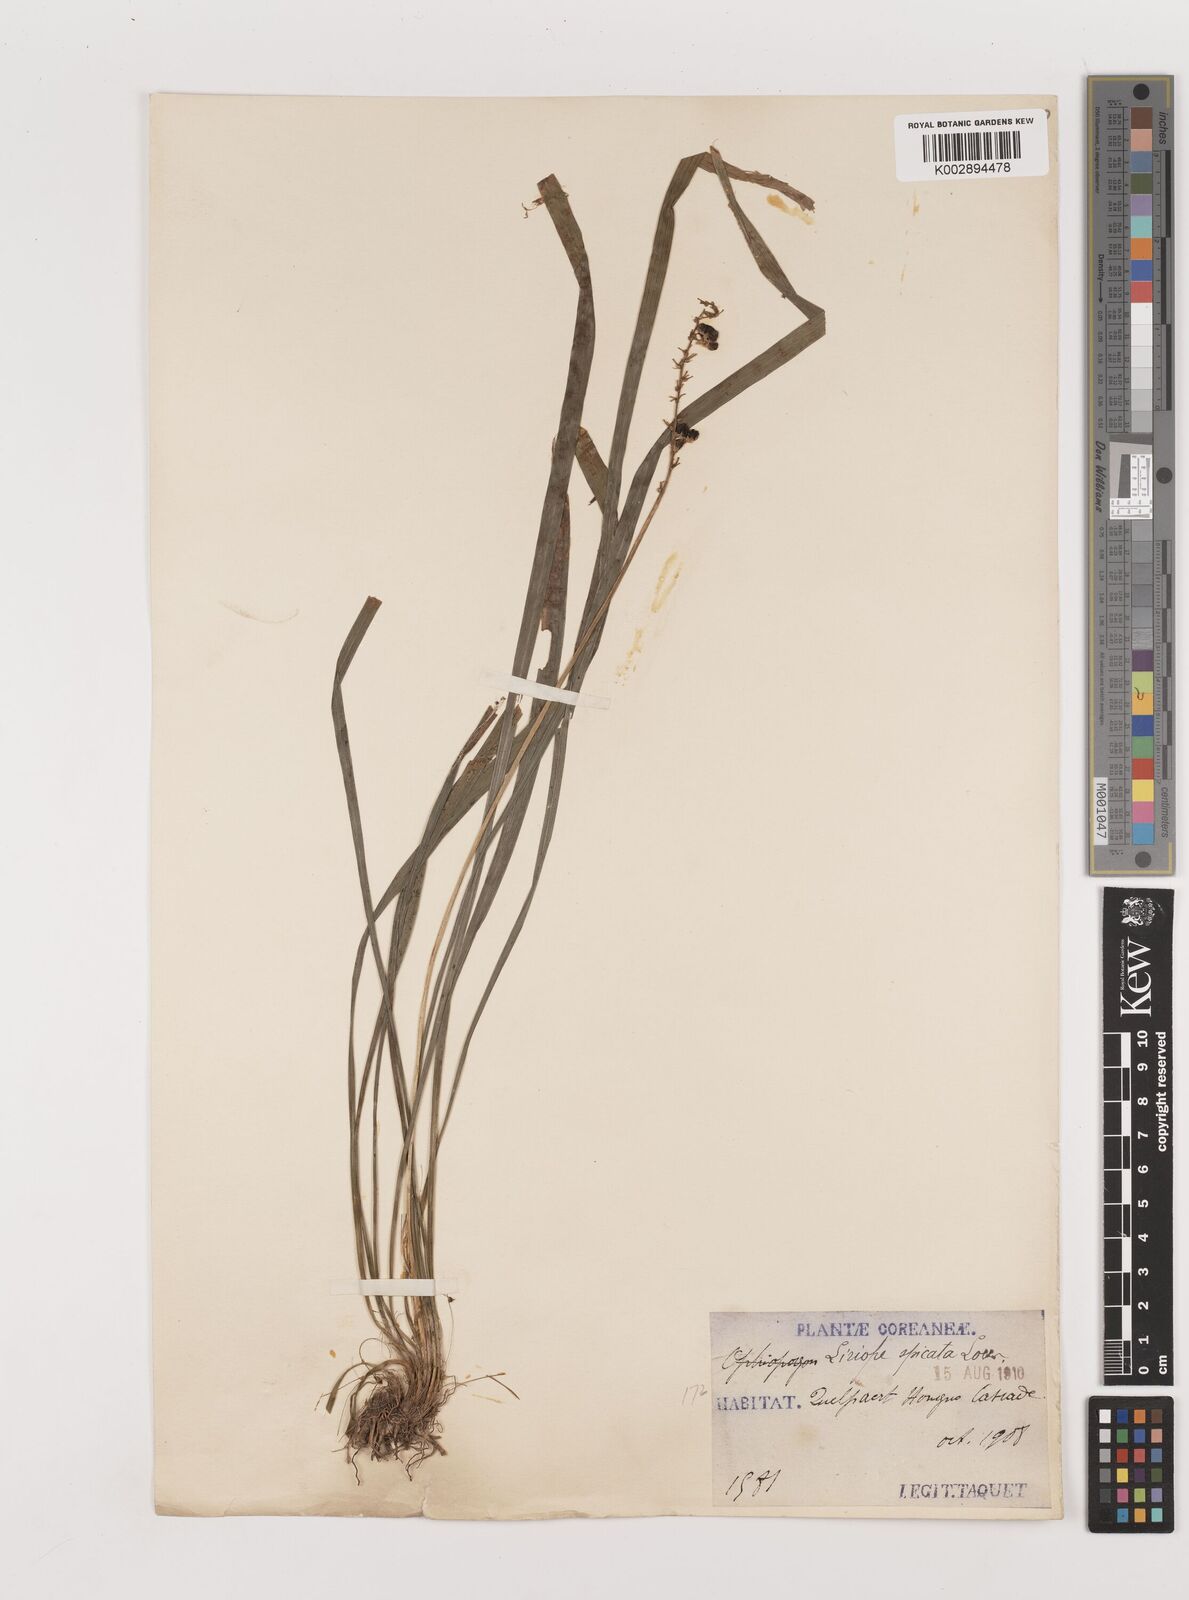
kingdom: Plantae
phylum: Tracheophyta
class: Liliopsida
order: Asparagales
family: Asparagaceae
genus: Liriope
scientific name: Liriope spicata
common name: Creeping liriope
